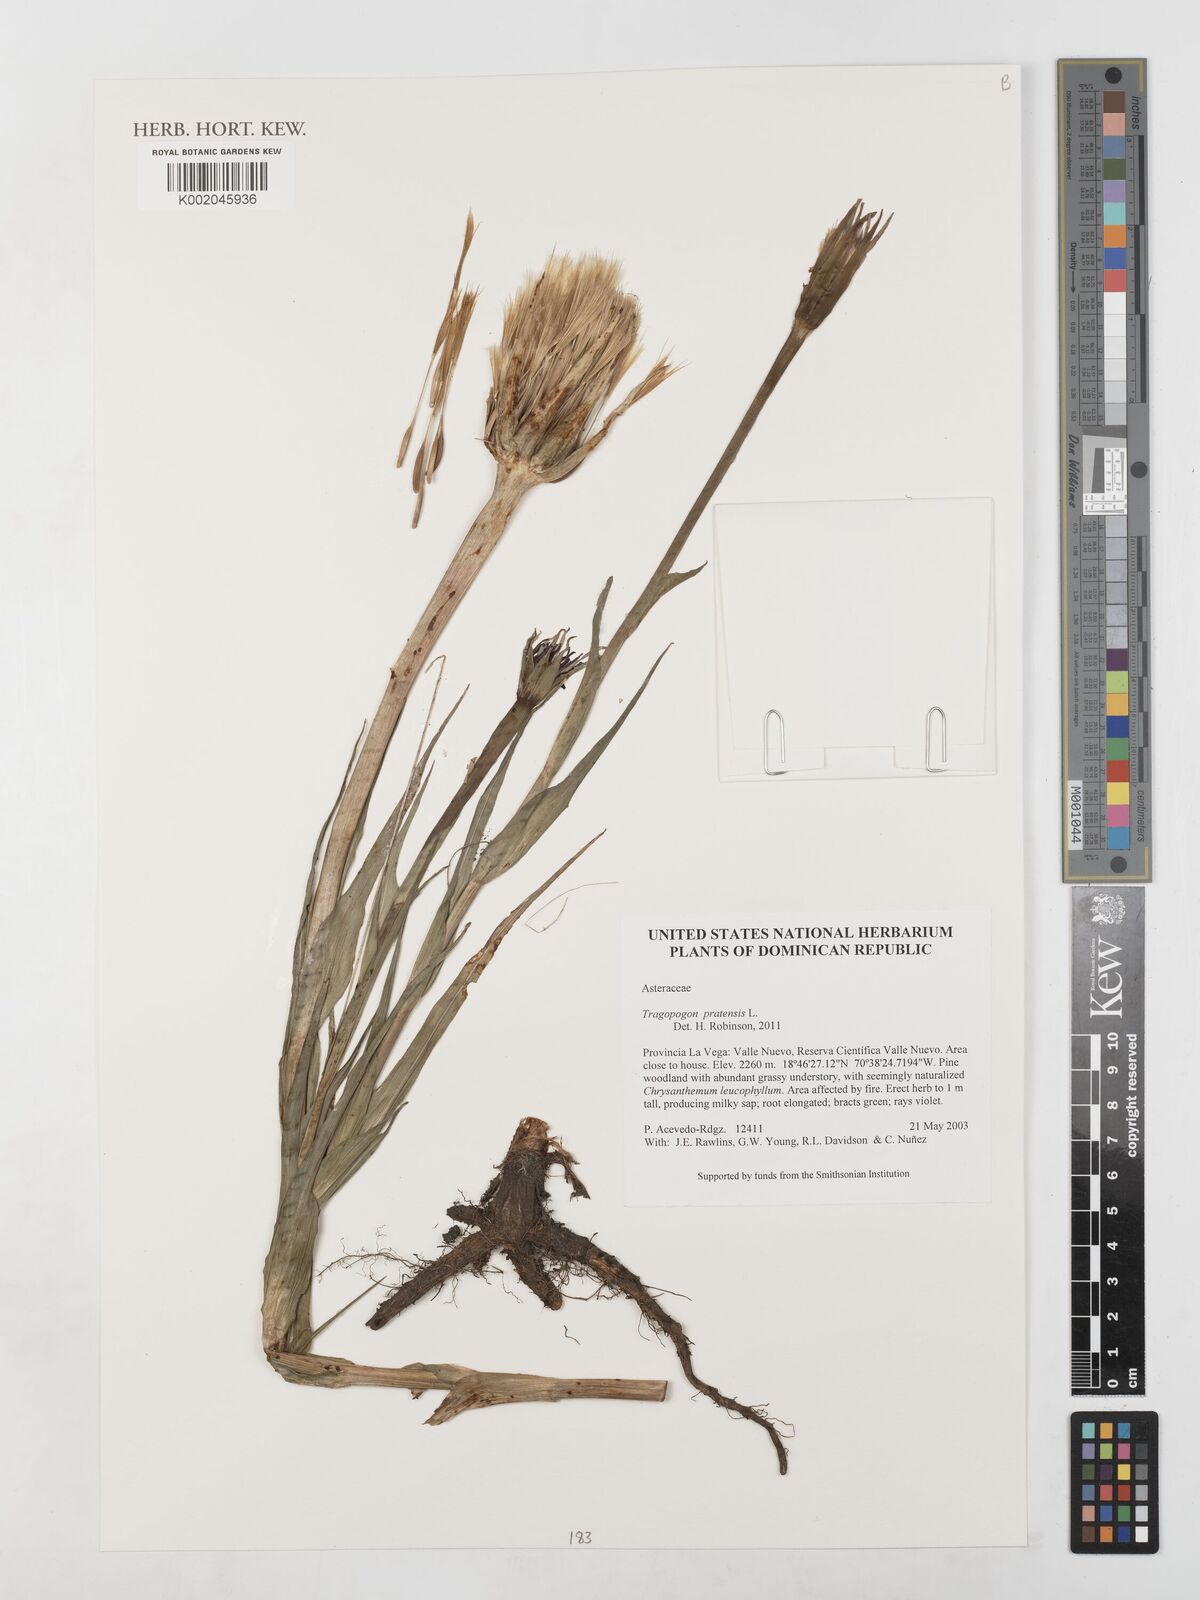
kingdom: Plantae
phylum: Tracheophyta
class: Magnoliopsida
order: Asterales
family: Asteraceae
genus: Tragopogon
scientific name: Tragopogon pratensis
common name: Goat's-beard
